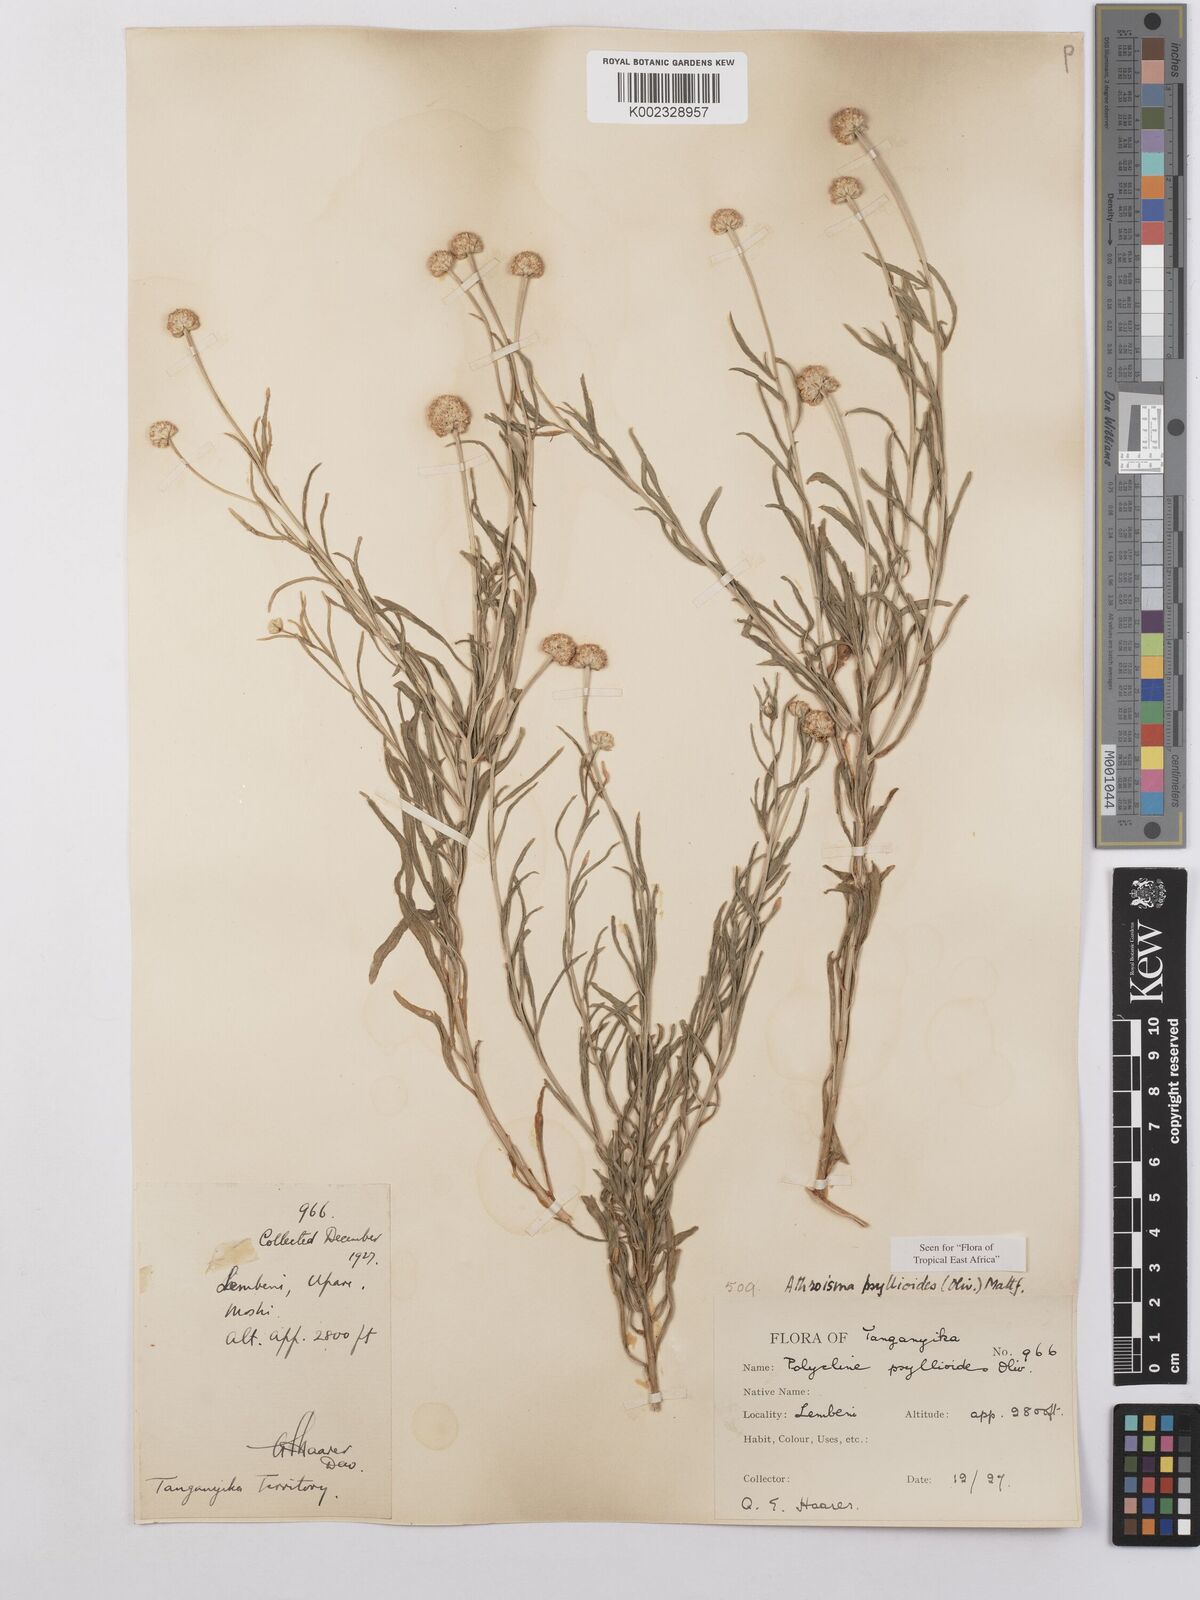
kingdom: Plantae
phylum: Tracheophyta
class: Magnoliopsida
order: Asterales
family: Asteraceae
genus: Athroisma
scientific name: Athroisma gracile
